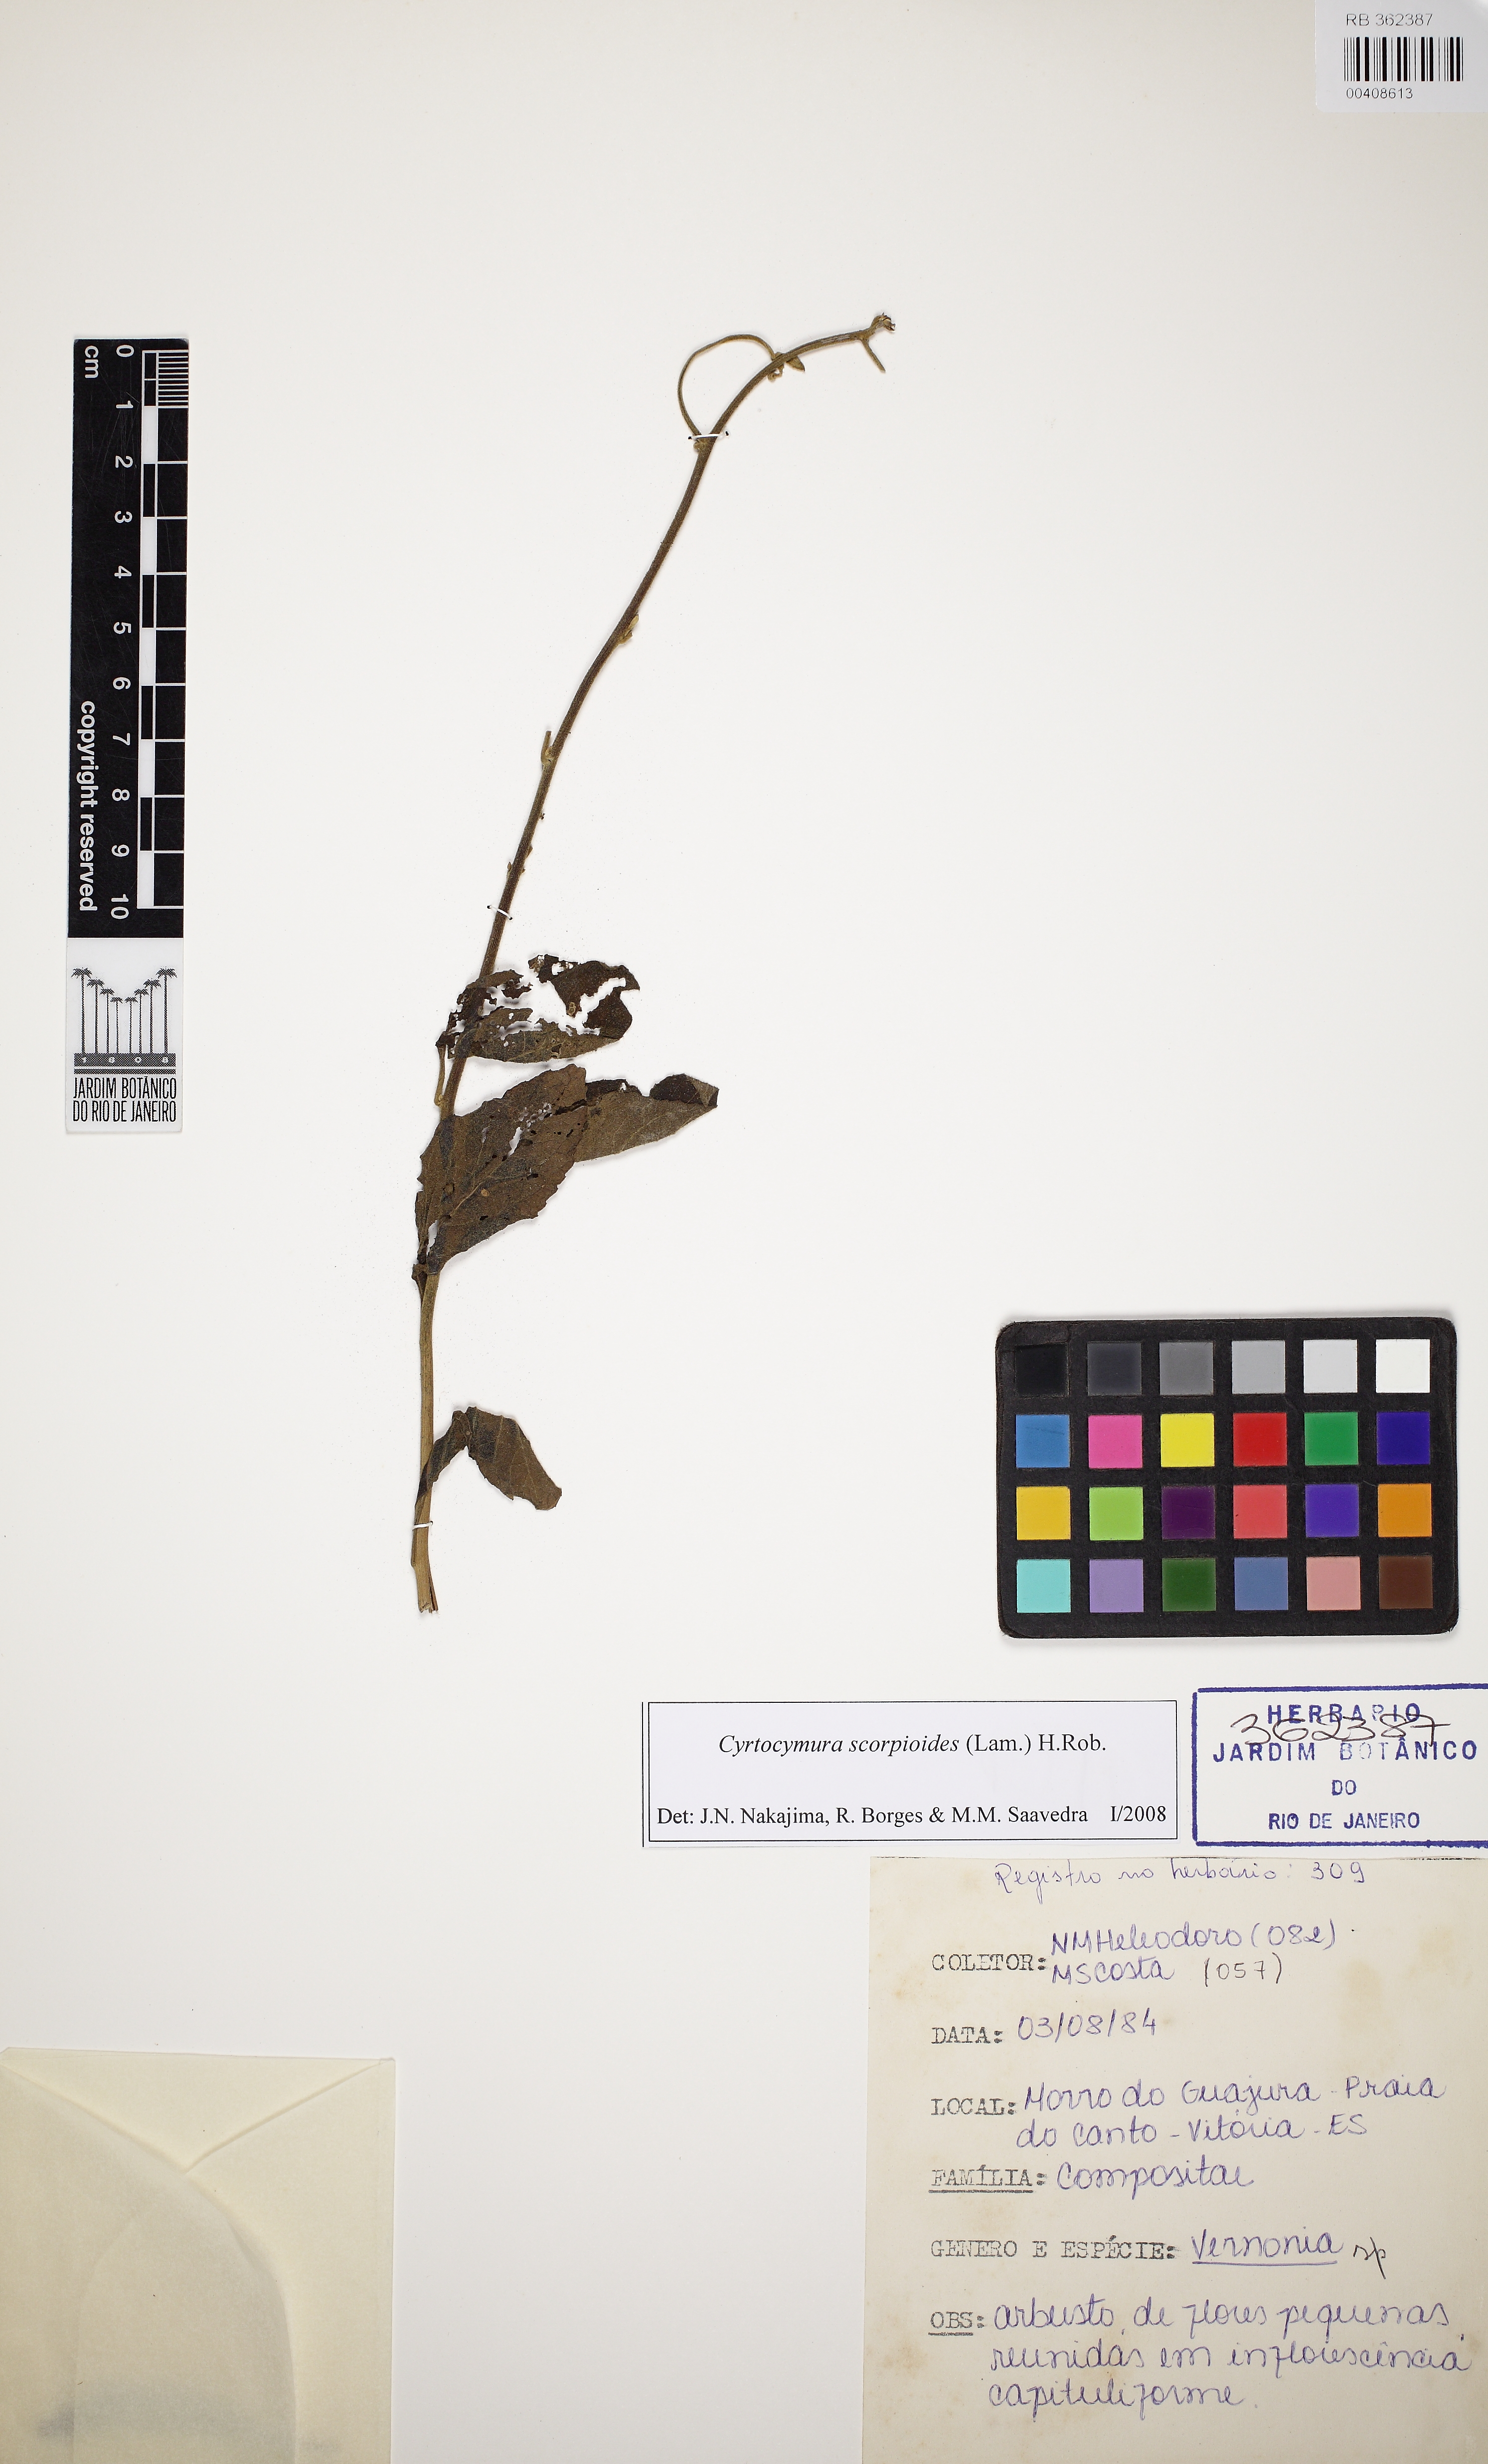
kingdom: Plantae
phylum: Tracheophyta
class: Magnoliopsida
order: Asterales
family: Asteraceae
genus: Cyrtocymura
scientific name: Cyrtocymura scorpioides
